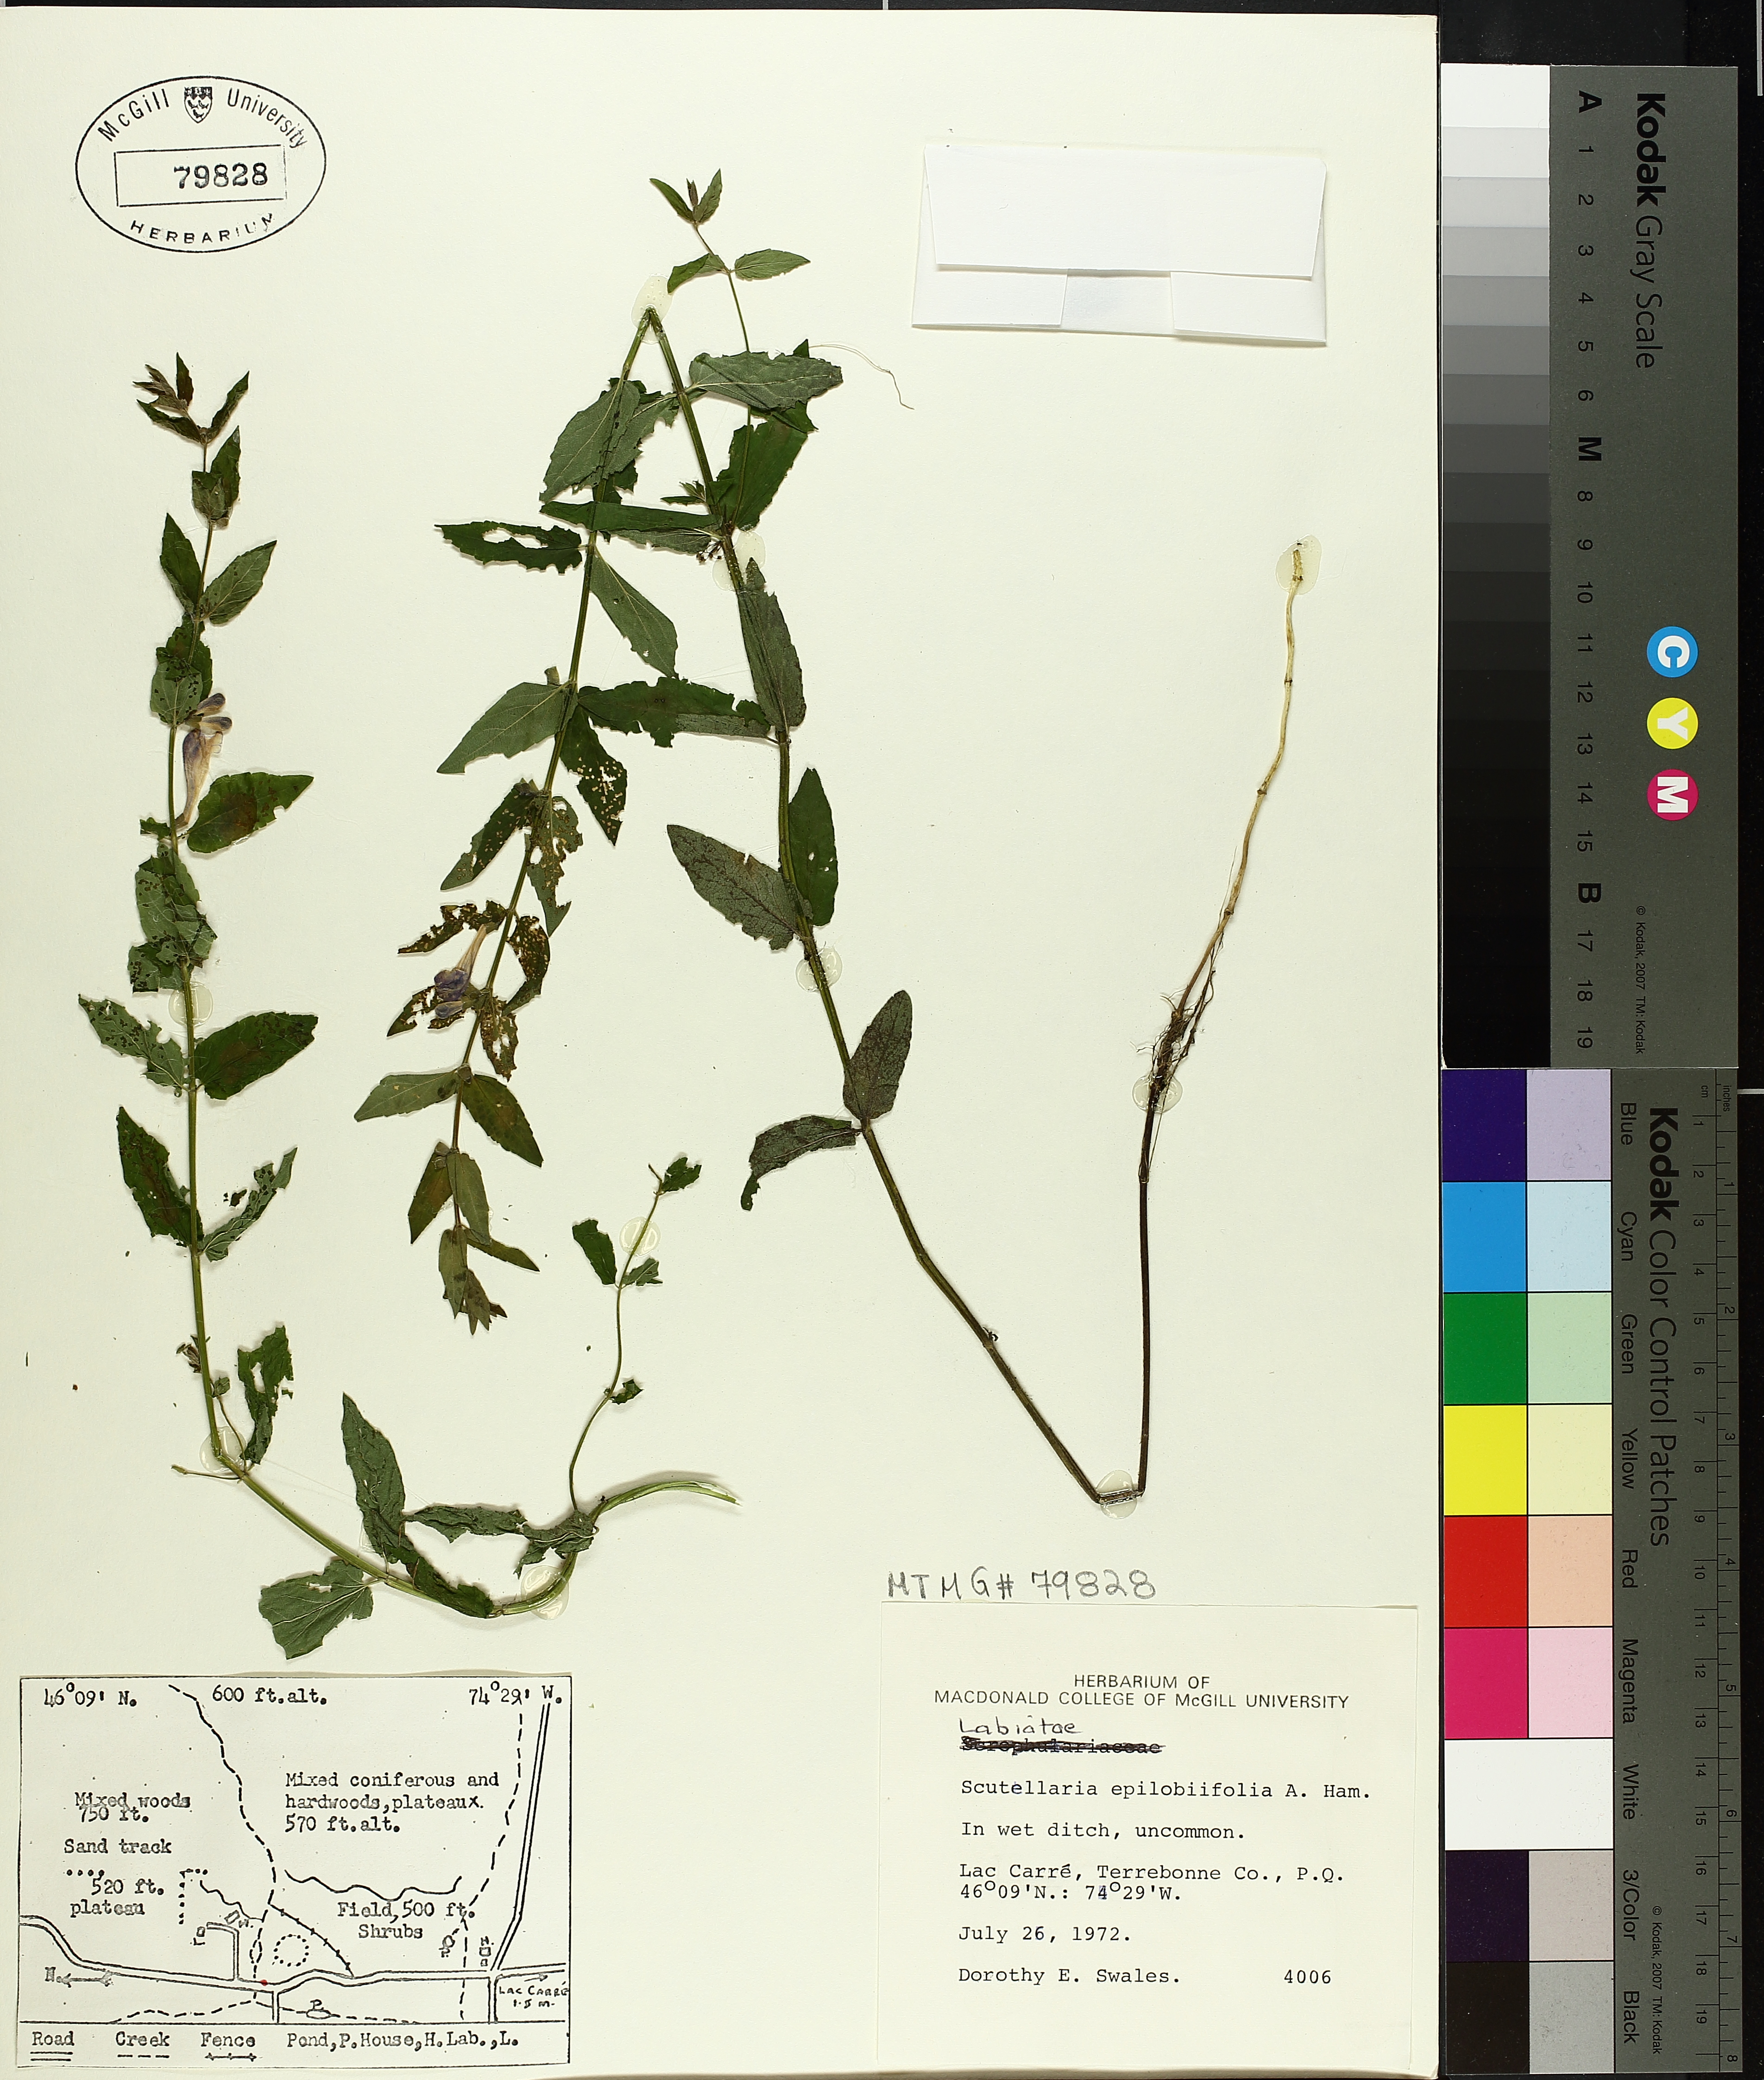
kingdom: Plantae
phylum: Tracheophyta
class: Magnoliopsida
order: Lamiales
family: Lamiaceae
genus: Scutellaria
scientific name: Scutellaria galericulata
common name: Skullcap
